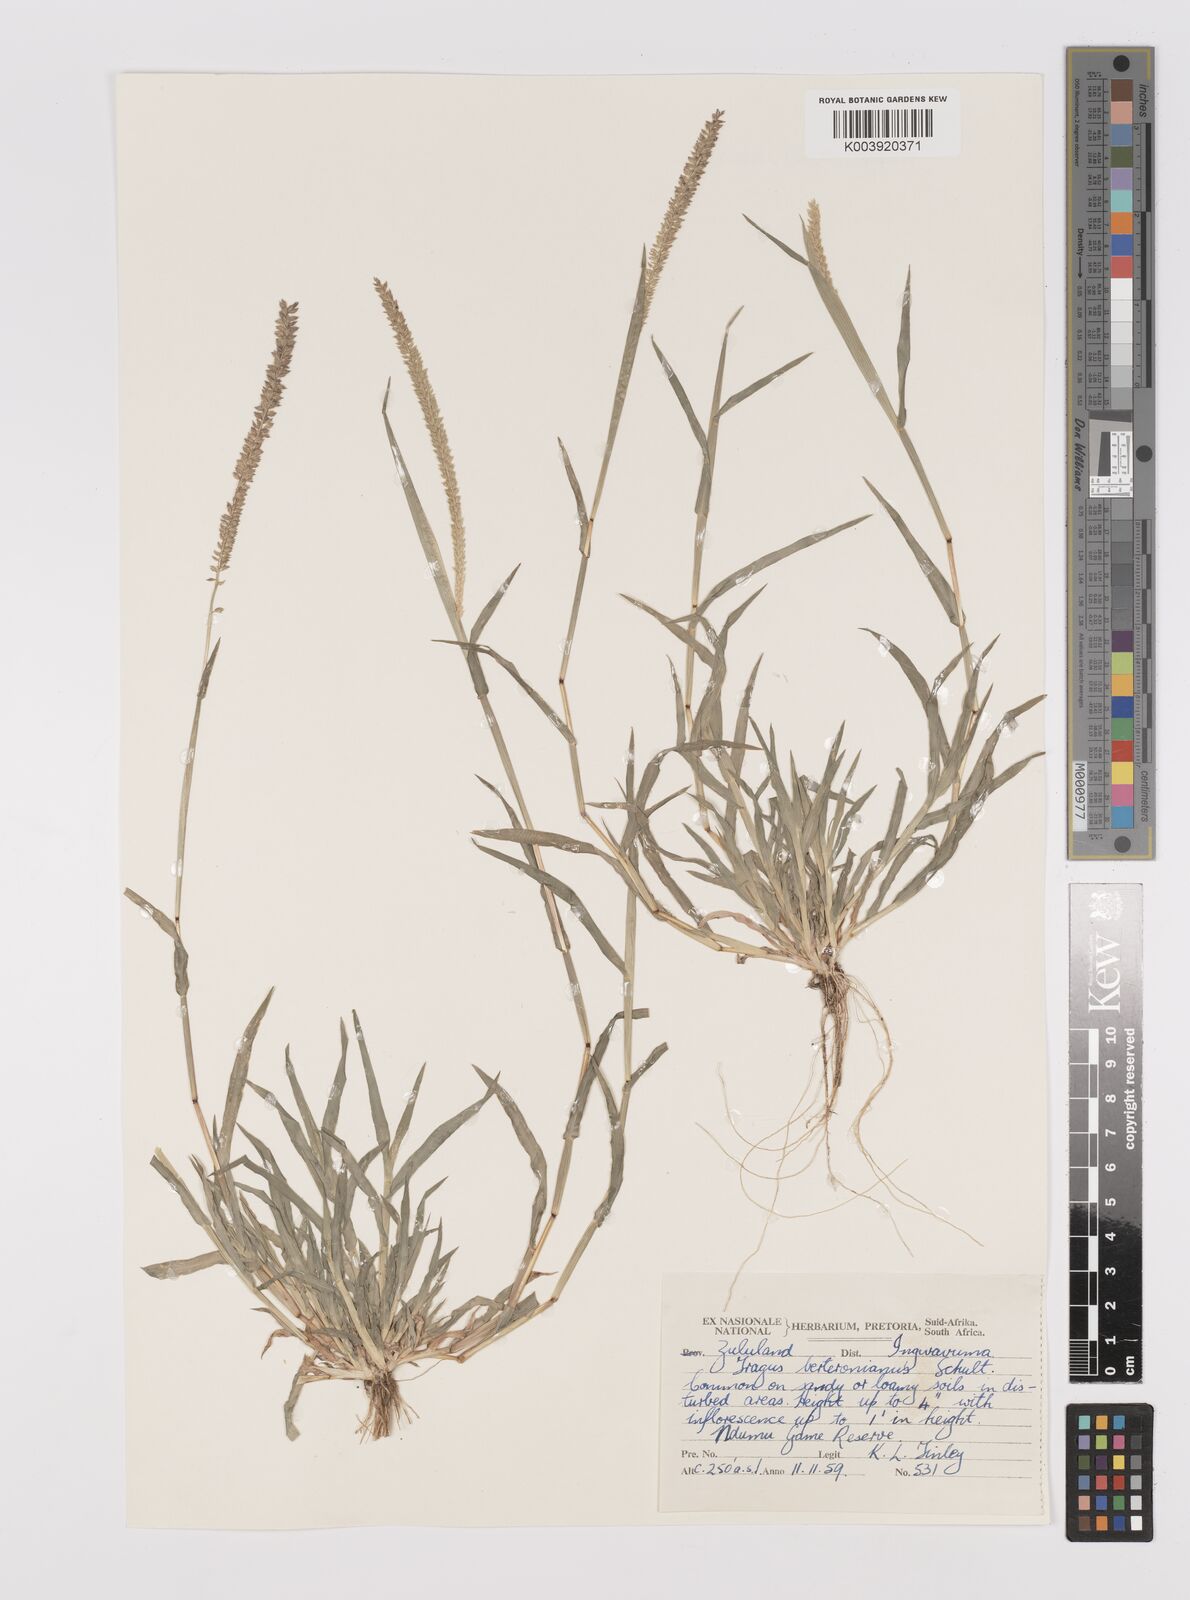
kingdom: Plantae
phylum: Tracheophyta
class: Liliopsida
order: Poales
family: Poaceae
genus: Tragus
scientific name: Tragus berteronianus
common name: African bur-grass
